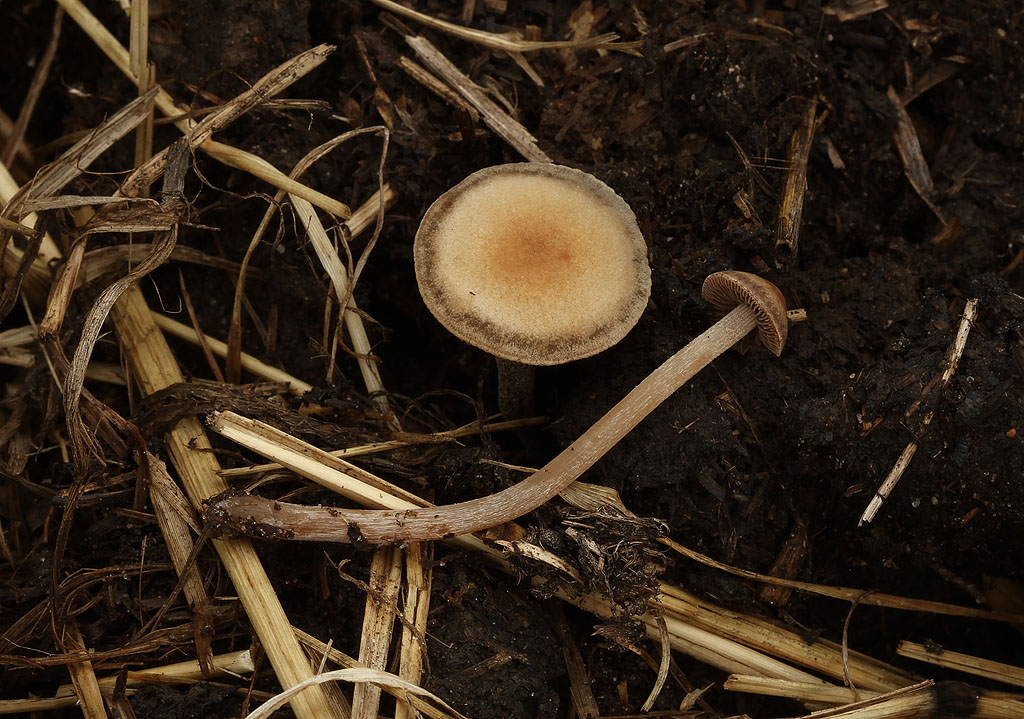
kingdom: Fungi
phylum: Basidiomycota
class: Agaricomycetes
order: Agaricales
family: Bolbitiaceae
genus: Panaeolus
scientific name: Panaeolus cinctulus
